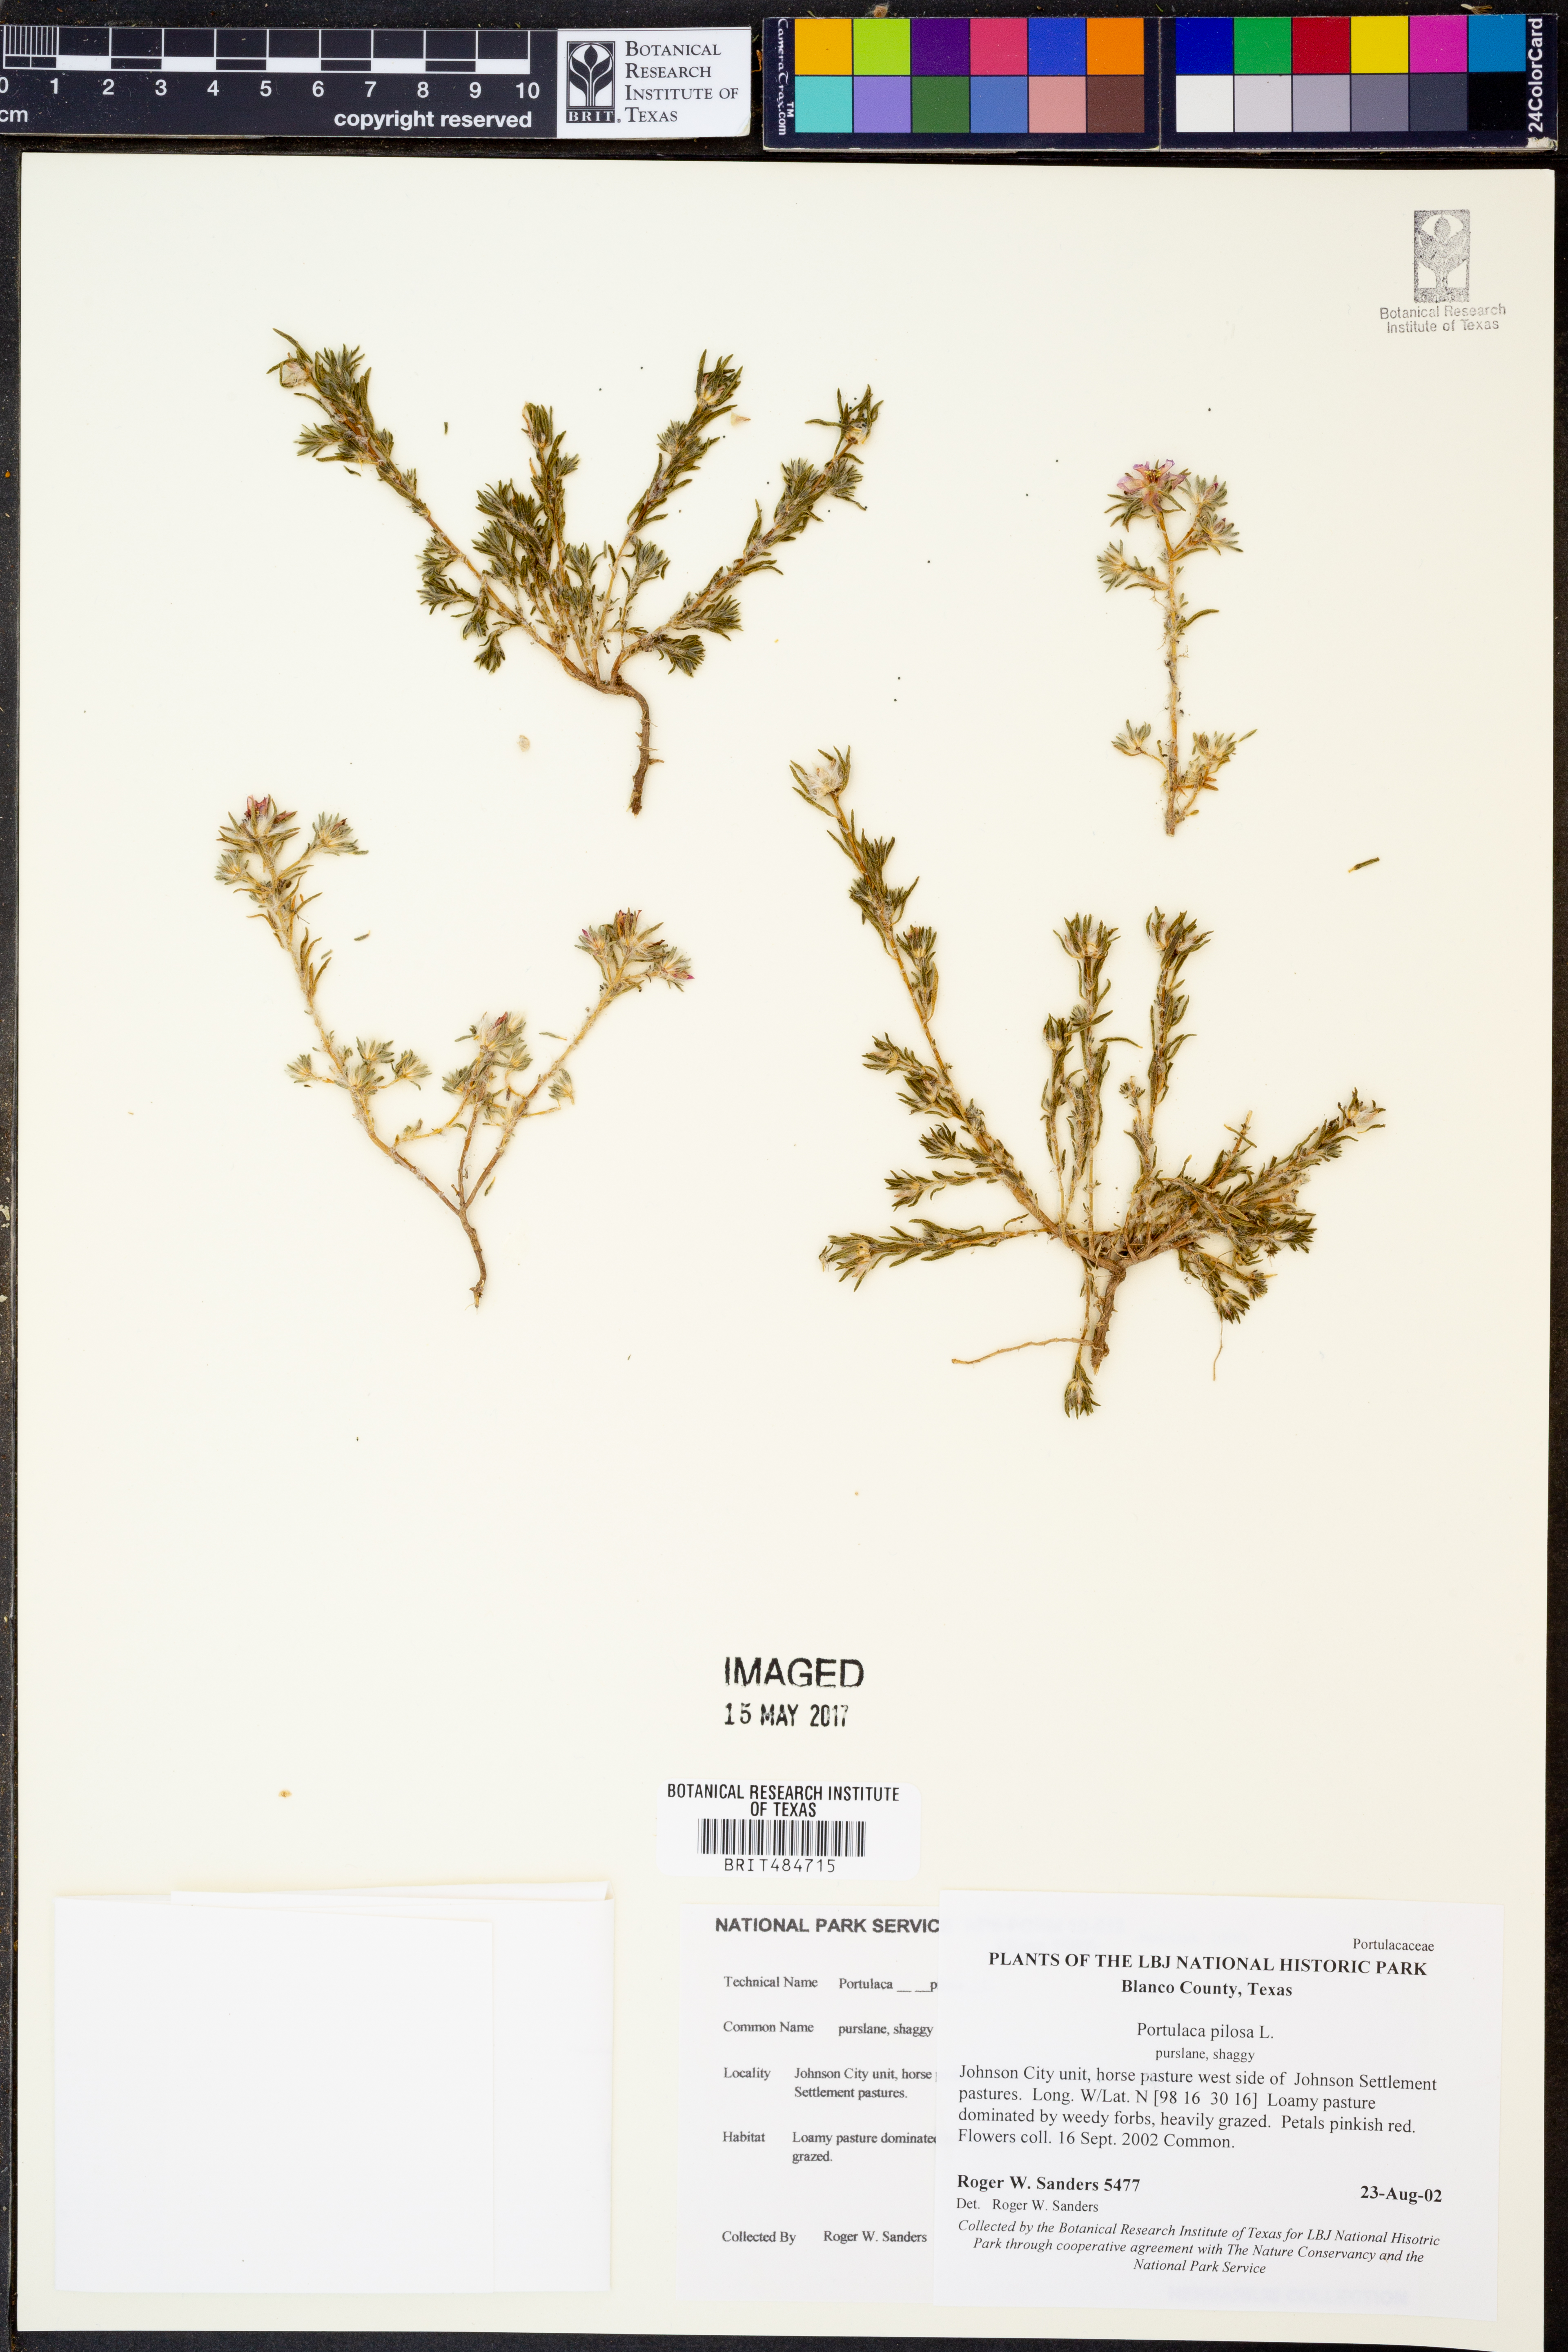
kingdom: Plantae
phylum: Tracheophyta
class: Magnoliopsida
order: Caryophyllales
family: Portulacaceae
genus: Portulaca
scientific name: Portulaca pilosa
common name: Kiss me quick
